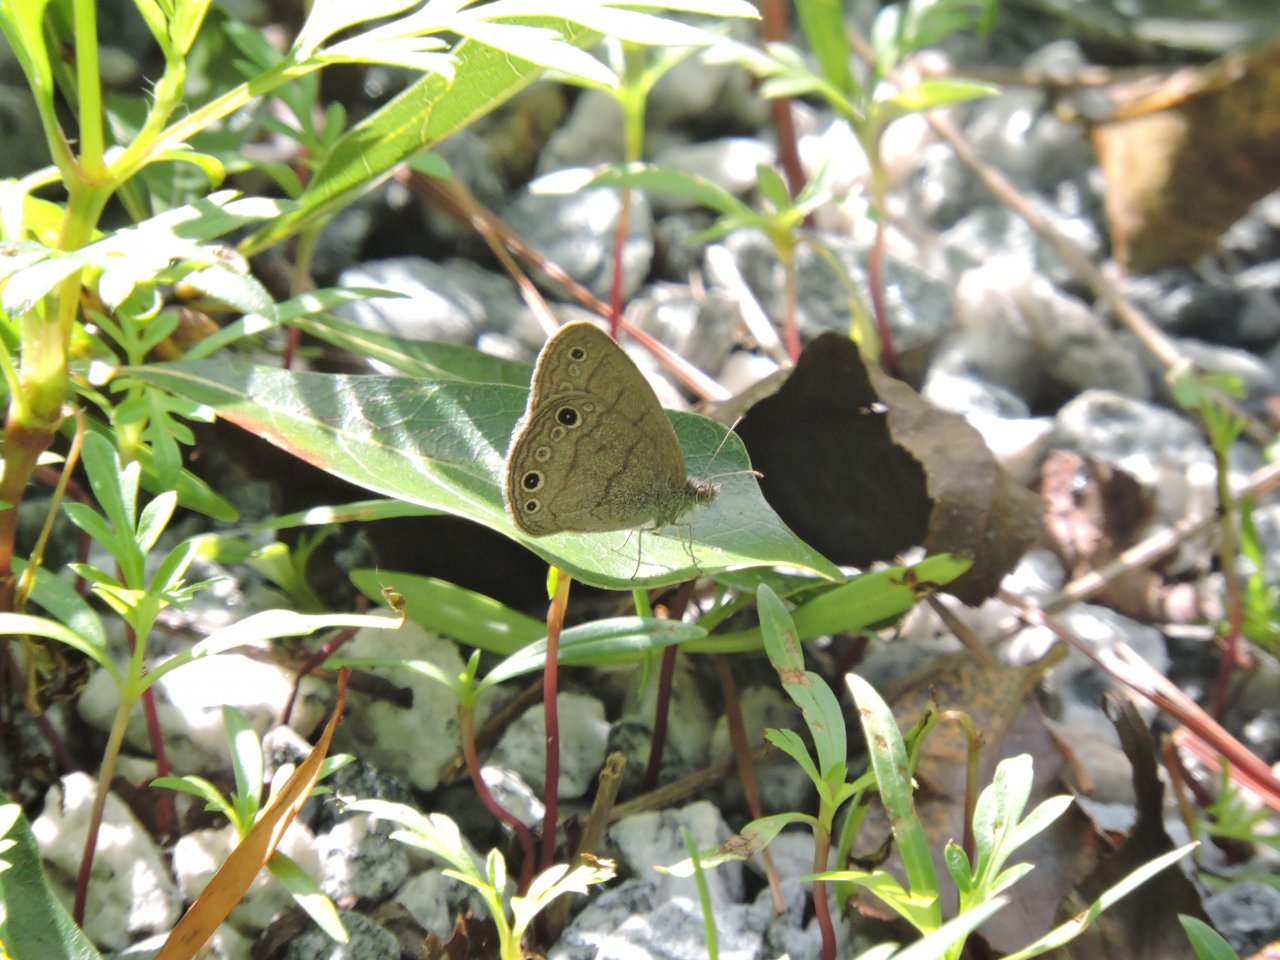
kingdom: Animalia
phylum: Arthropoda
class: Insecta
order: Lepidoptera
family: Nymphalidae
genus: Hermeuptychia
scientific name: Hermeuptychia hermes
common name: Carolina Satyr
